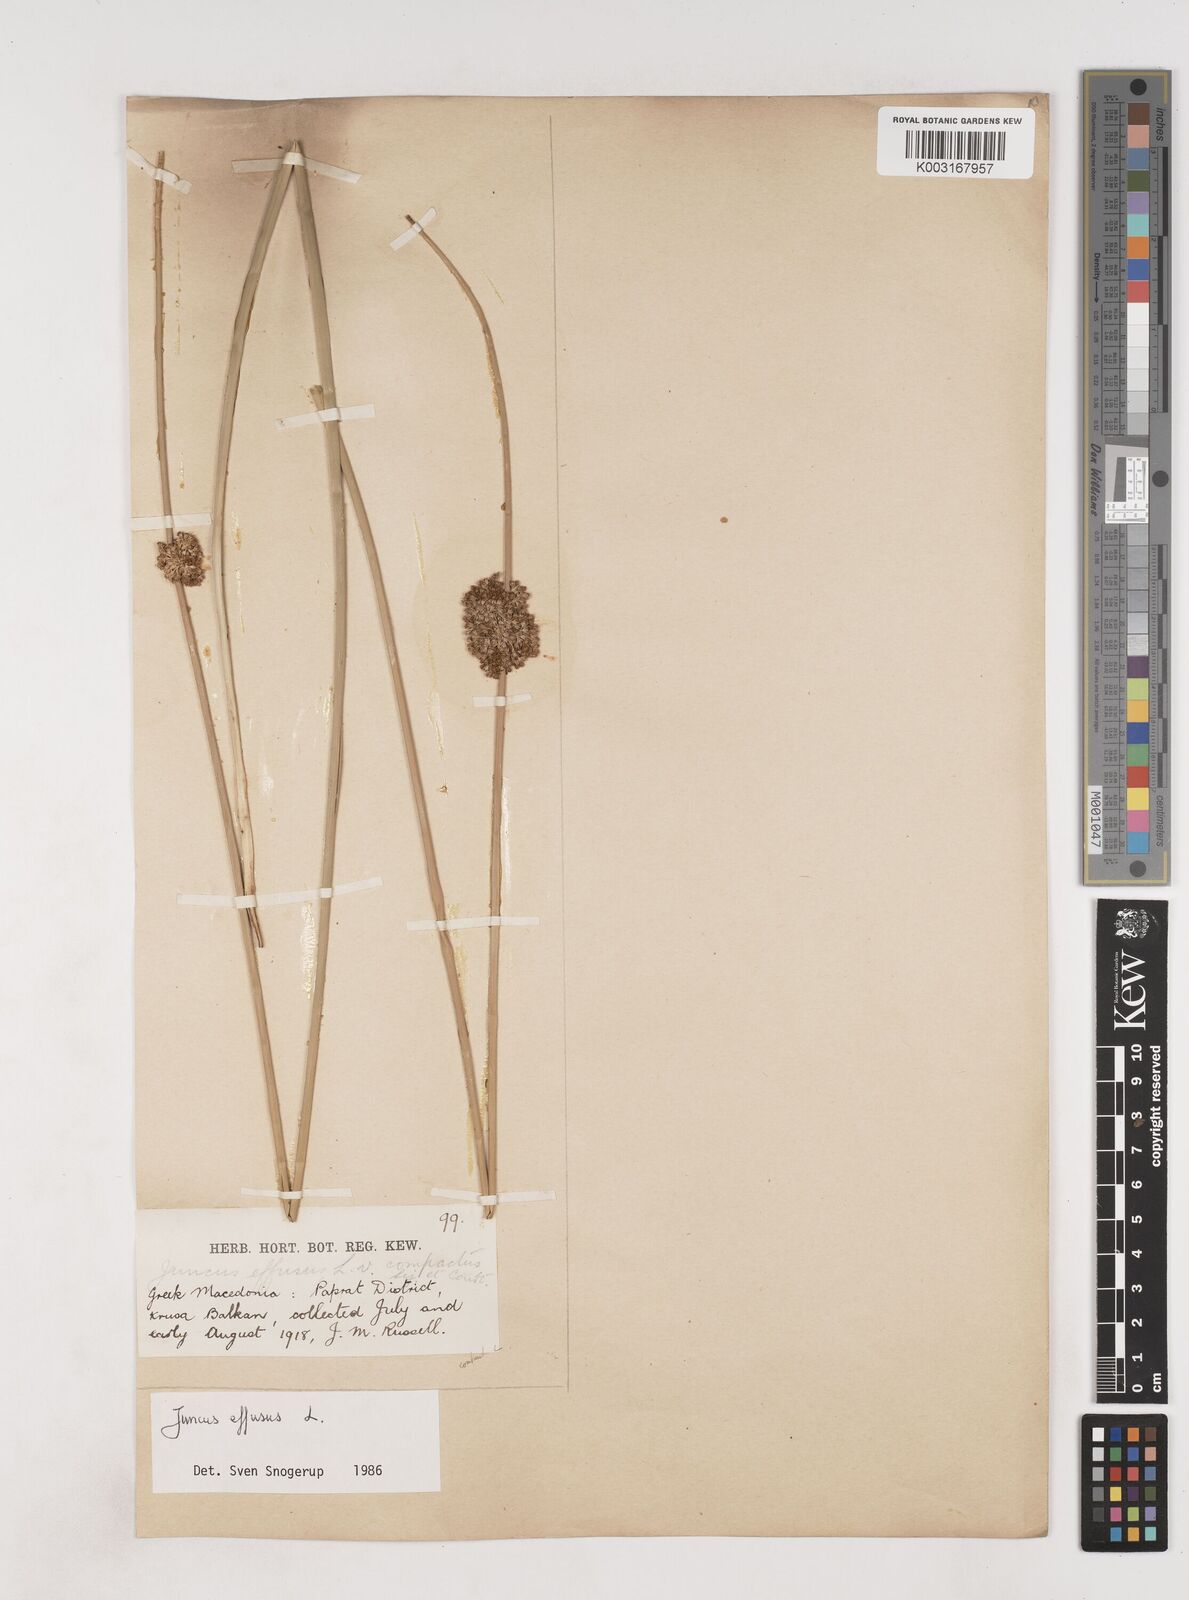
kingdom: Plantae
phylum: Tracheophyta
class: Liliopsida
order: Poales
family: Juncaceae
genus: Juncus
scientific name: Juncus effusus
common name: Soft rush
